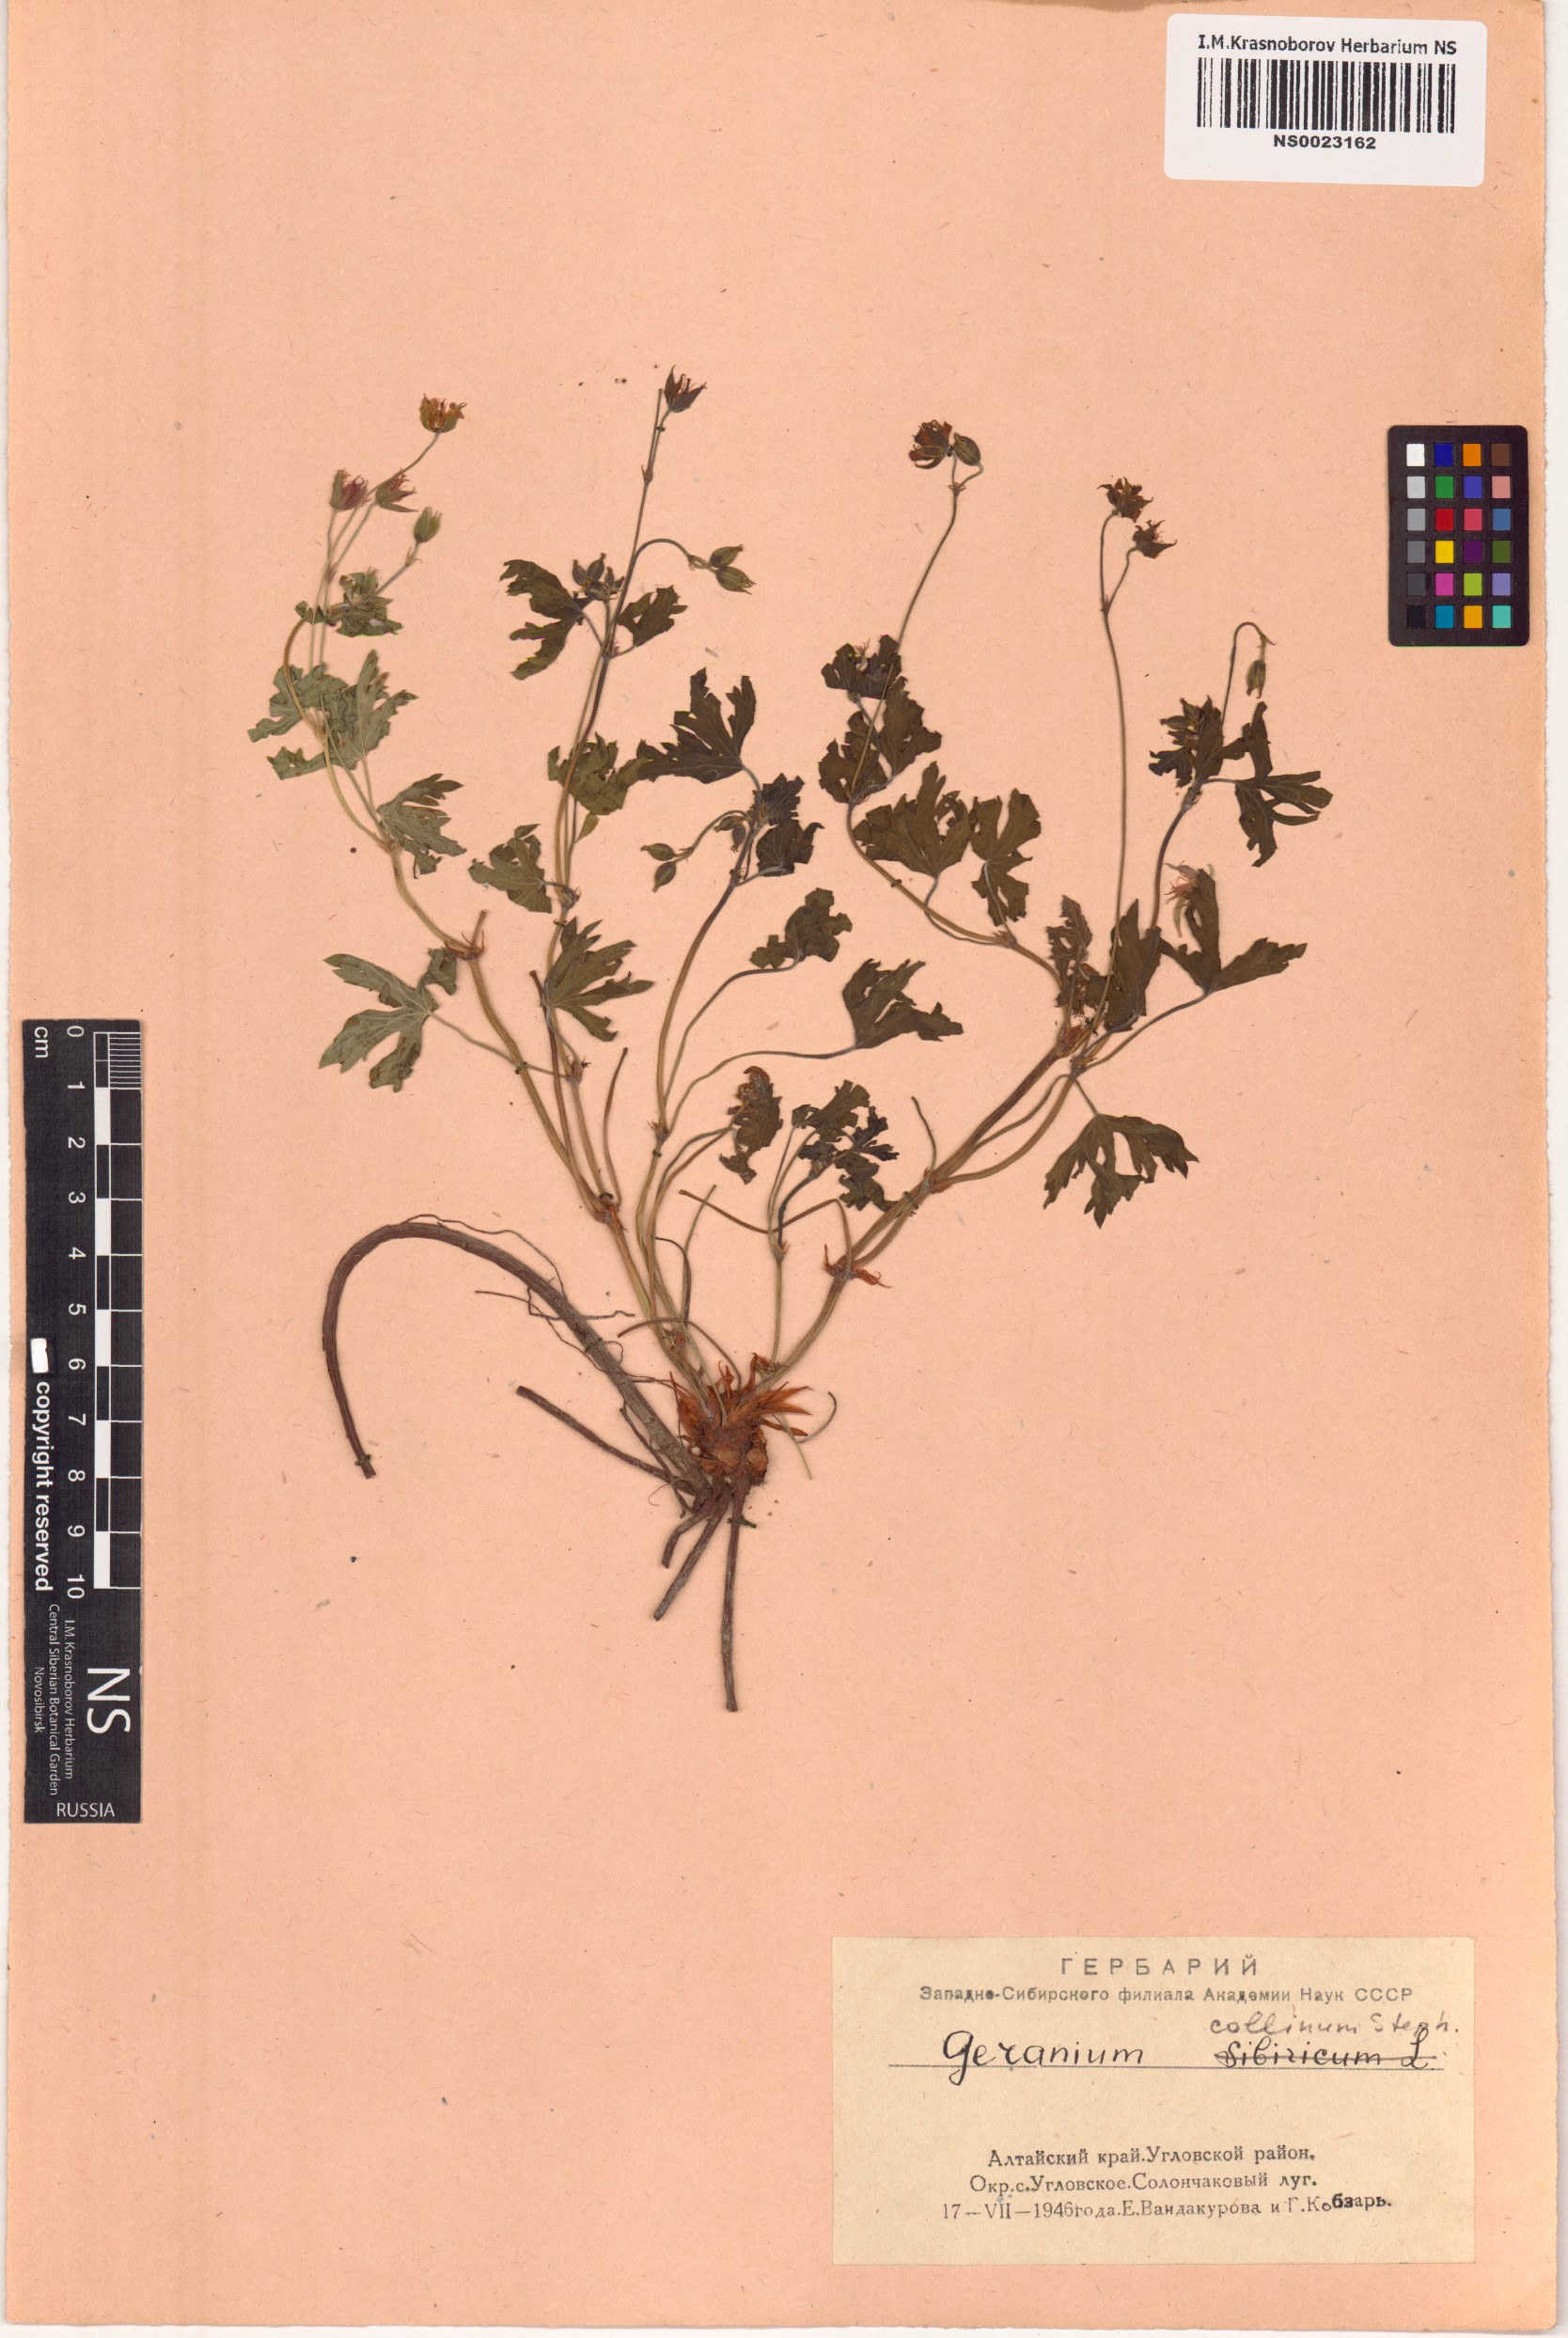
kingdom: Plantae
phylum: Tracheophyta
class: Magnoliopsida
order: Geraniales
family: Geraniaceae
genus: Geranium
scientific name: Geranium collinum
